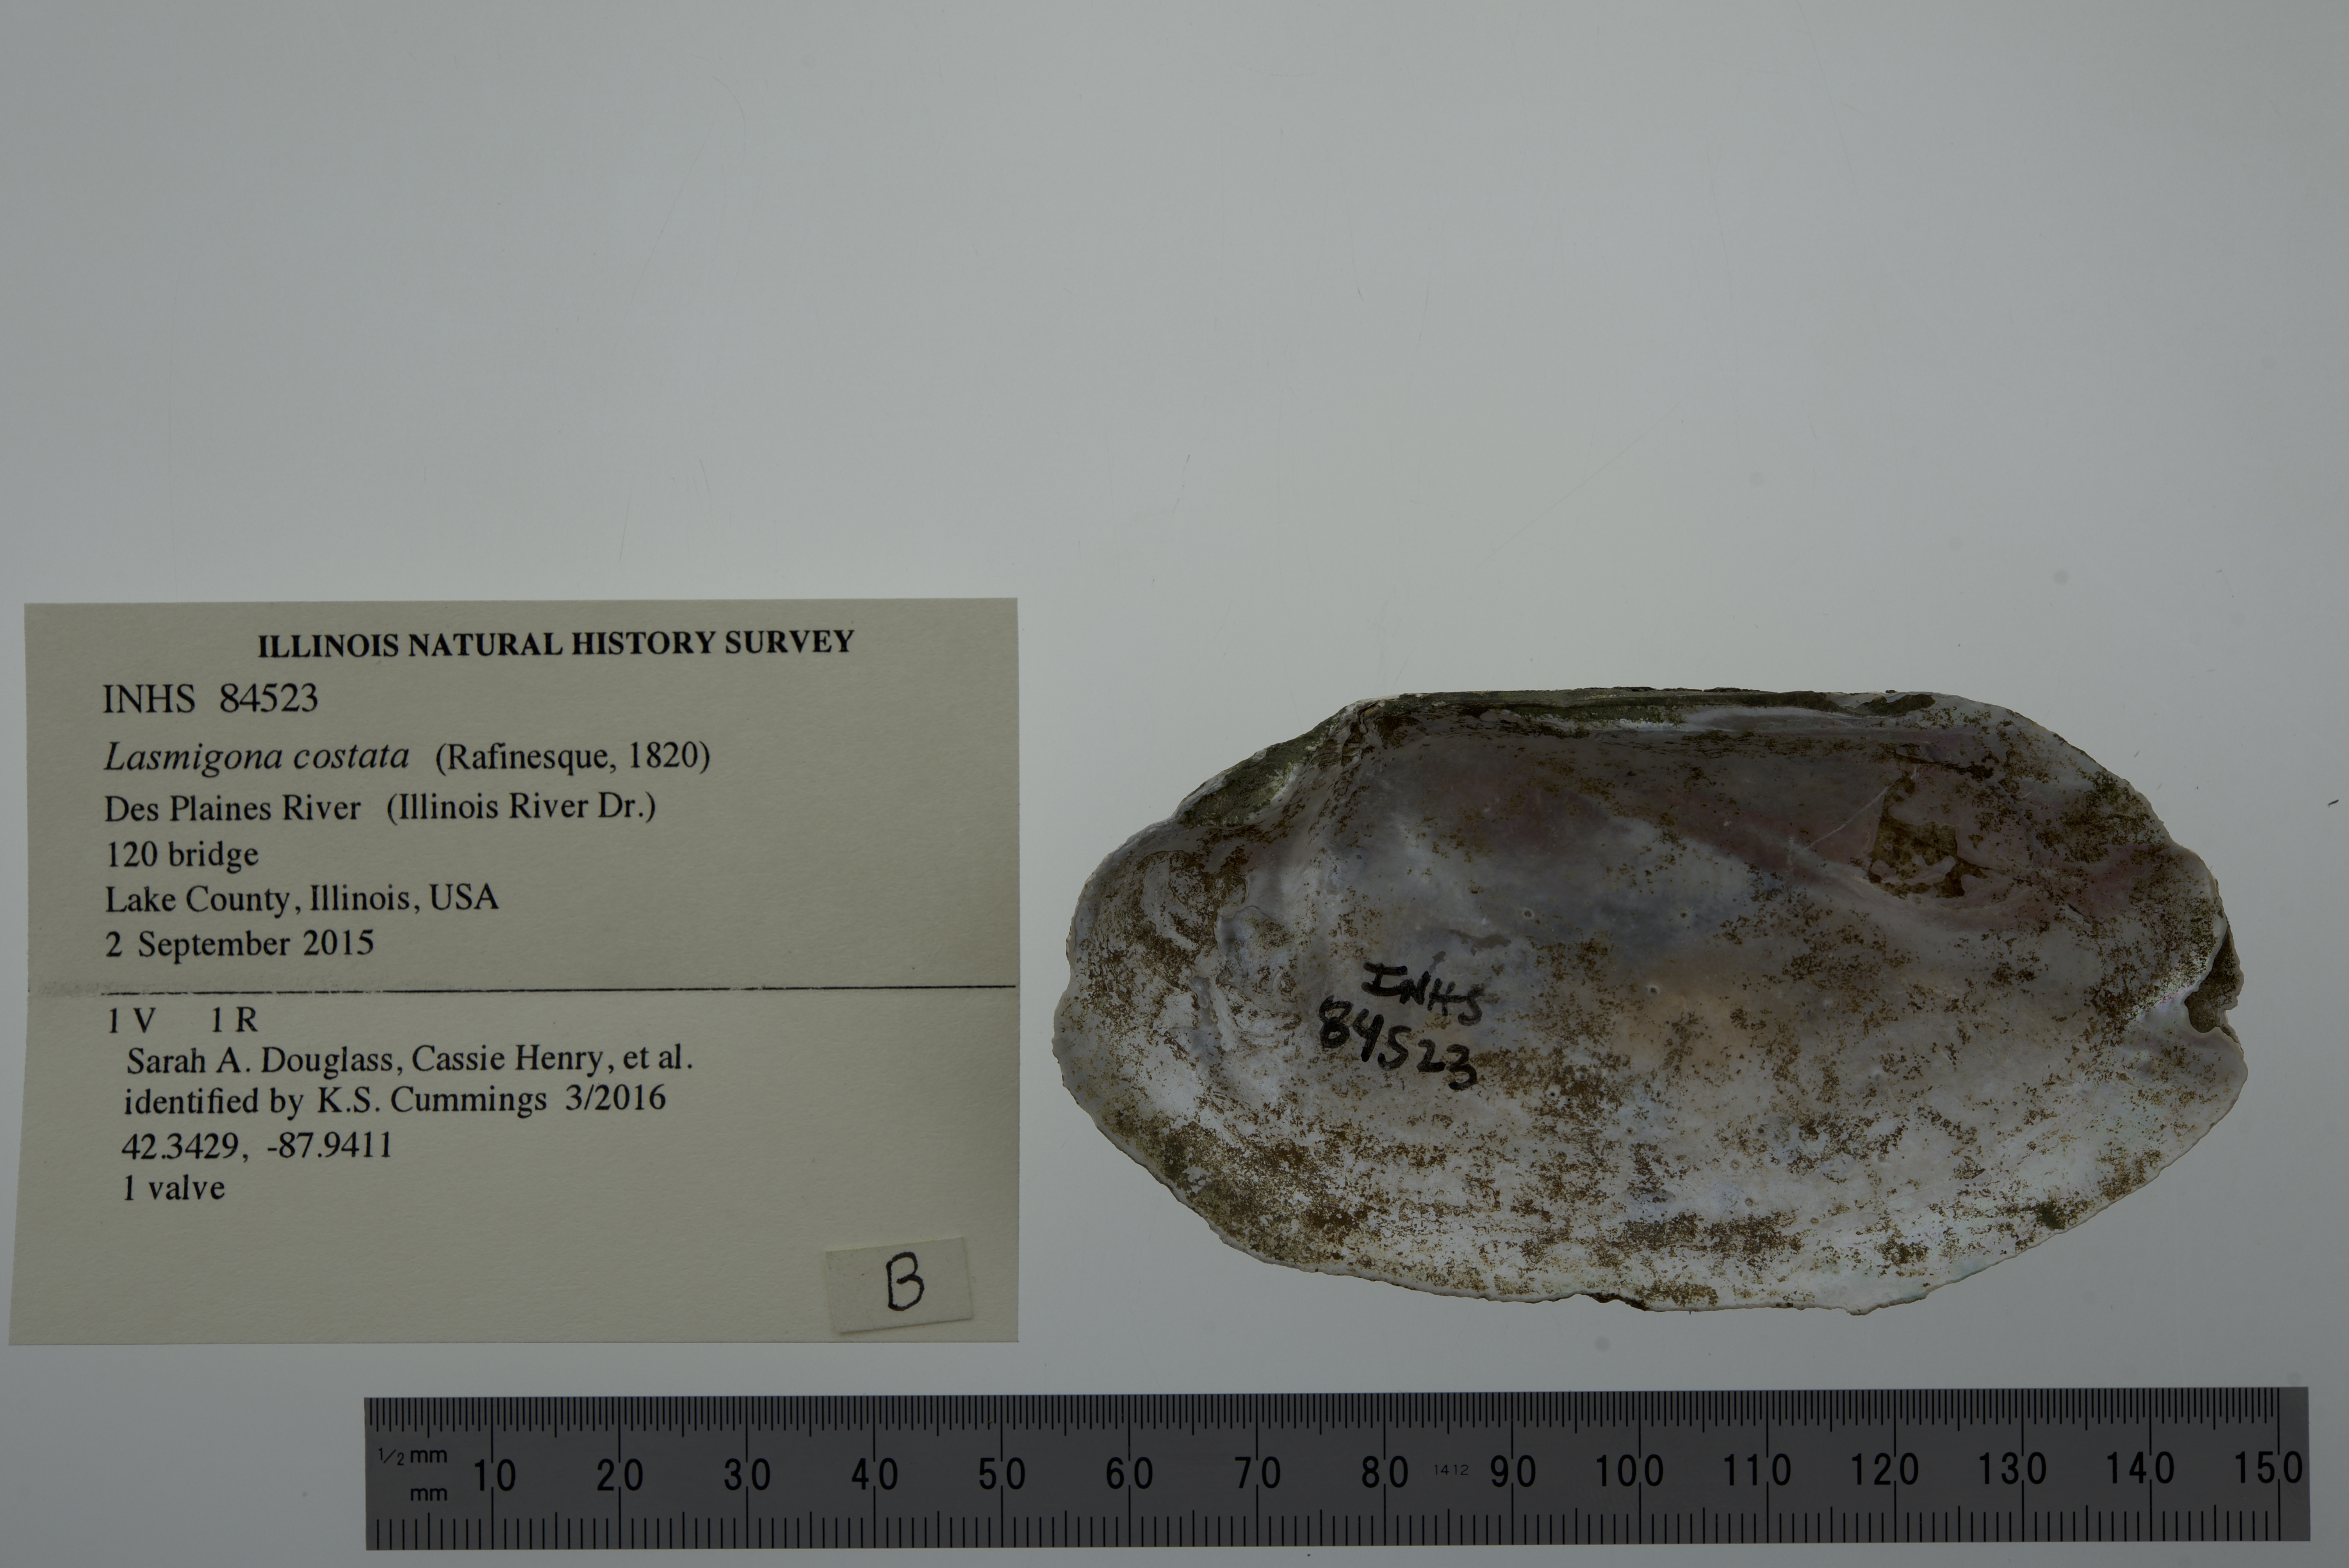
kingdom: Animalia
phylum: Mollusca
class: Bivalvia
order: Unionida
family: Unionidae
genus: Lasmigona
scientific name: Lasmigona costata
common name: Flutedshell
